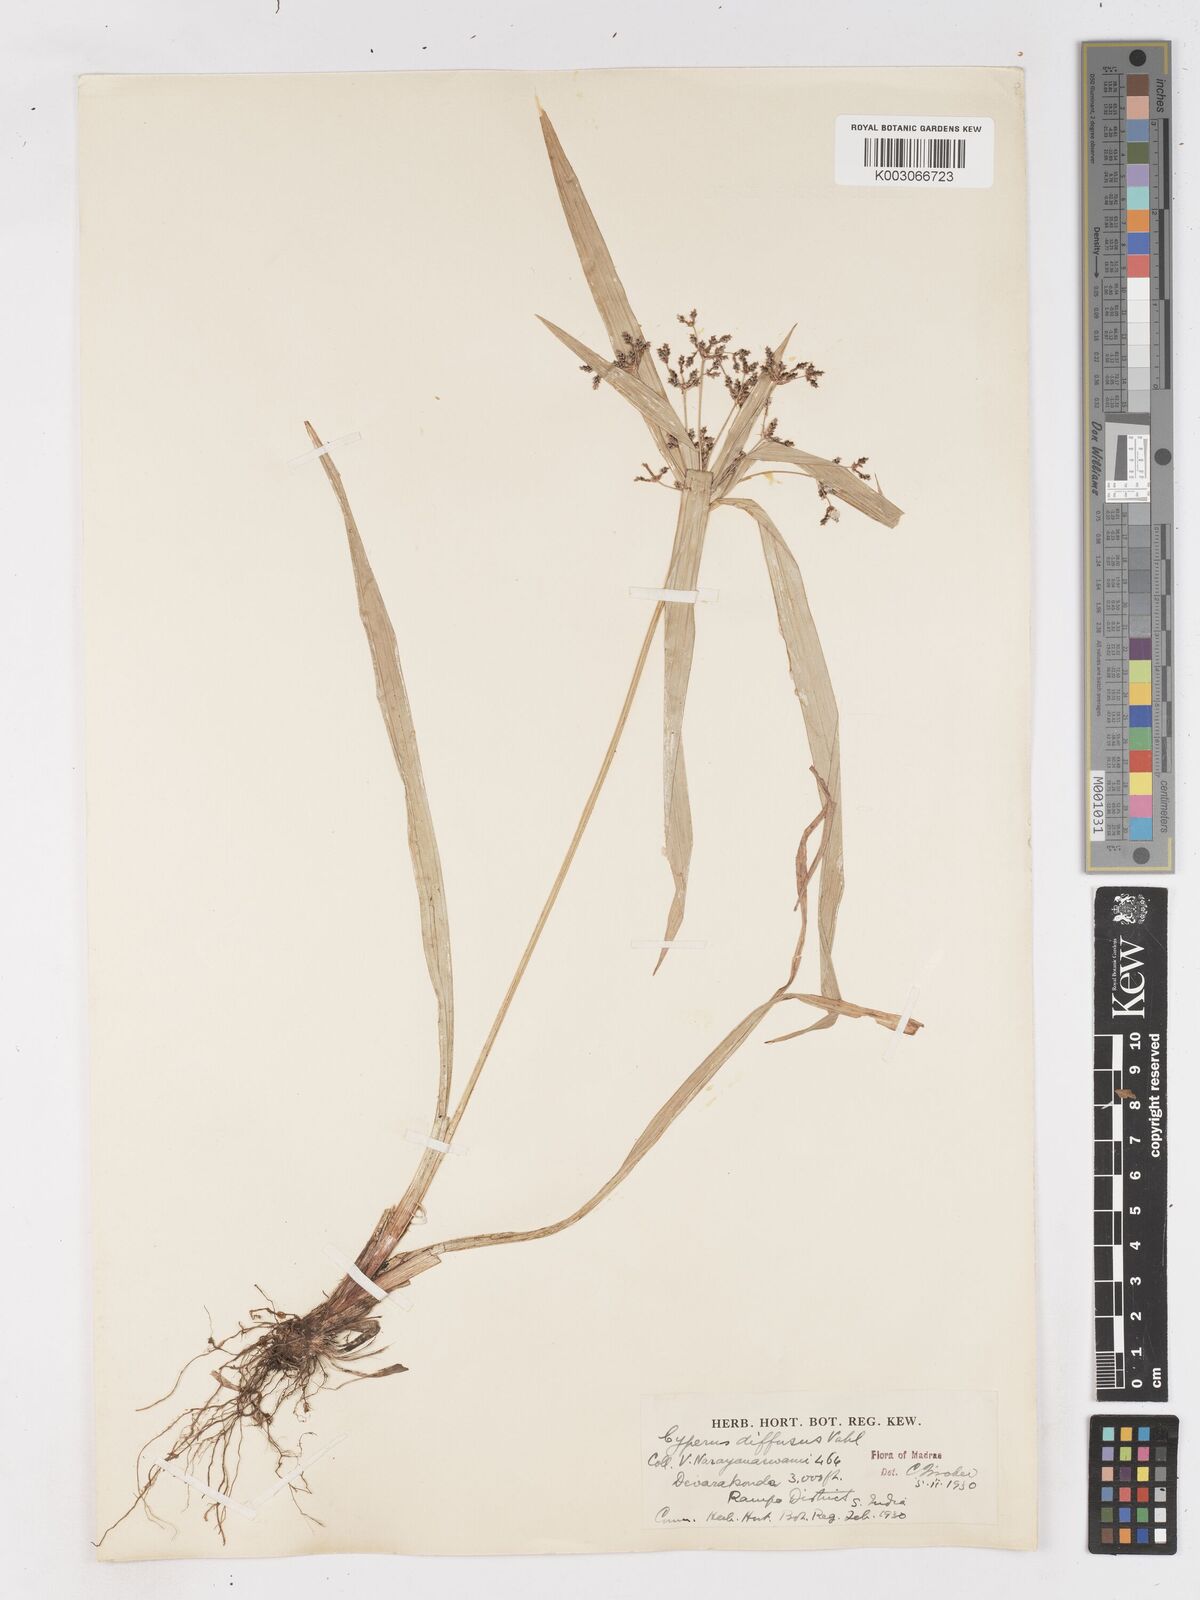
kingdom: Plantae
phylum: Tracheophyta
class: Liliopsida
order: Poales
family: Cyperaceae
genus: Cyperus
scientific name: Cyperus diffusus
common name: Dwarf umbrella grass
